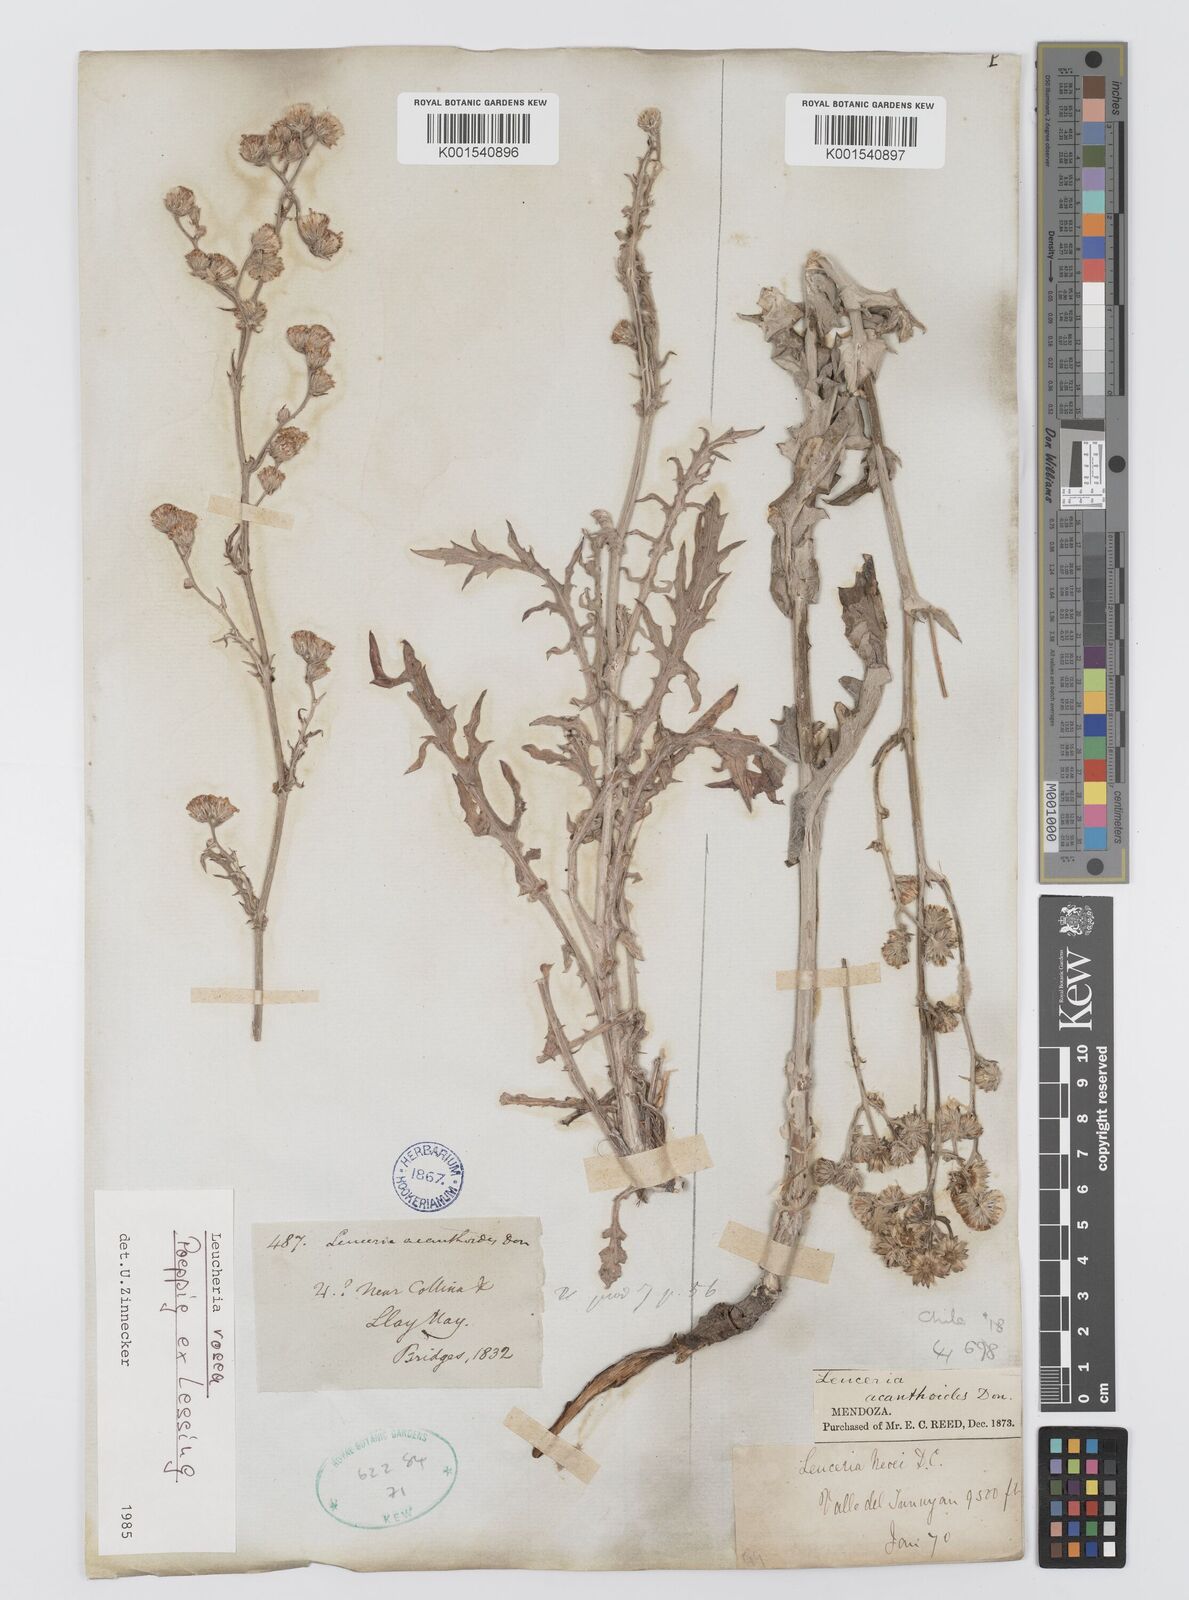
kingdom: Plantae
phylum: Tracheophyta
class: Magnoliopsida
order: Asterales
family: Asteraceae
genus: Leucheria
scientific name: Leucheria rosea
